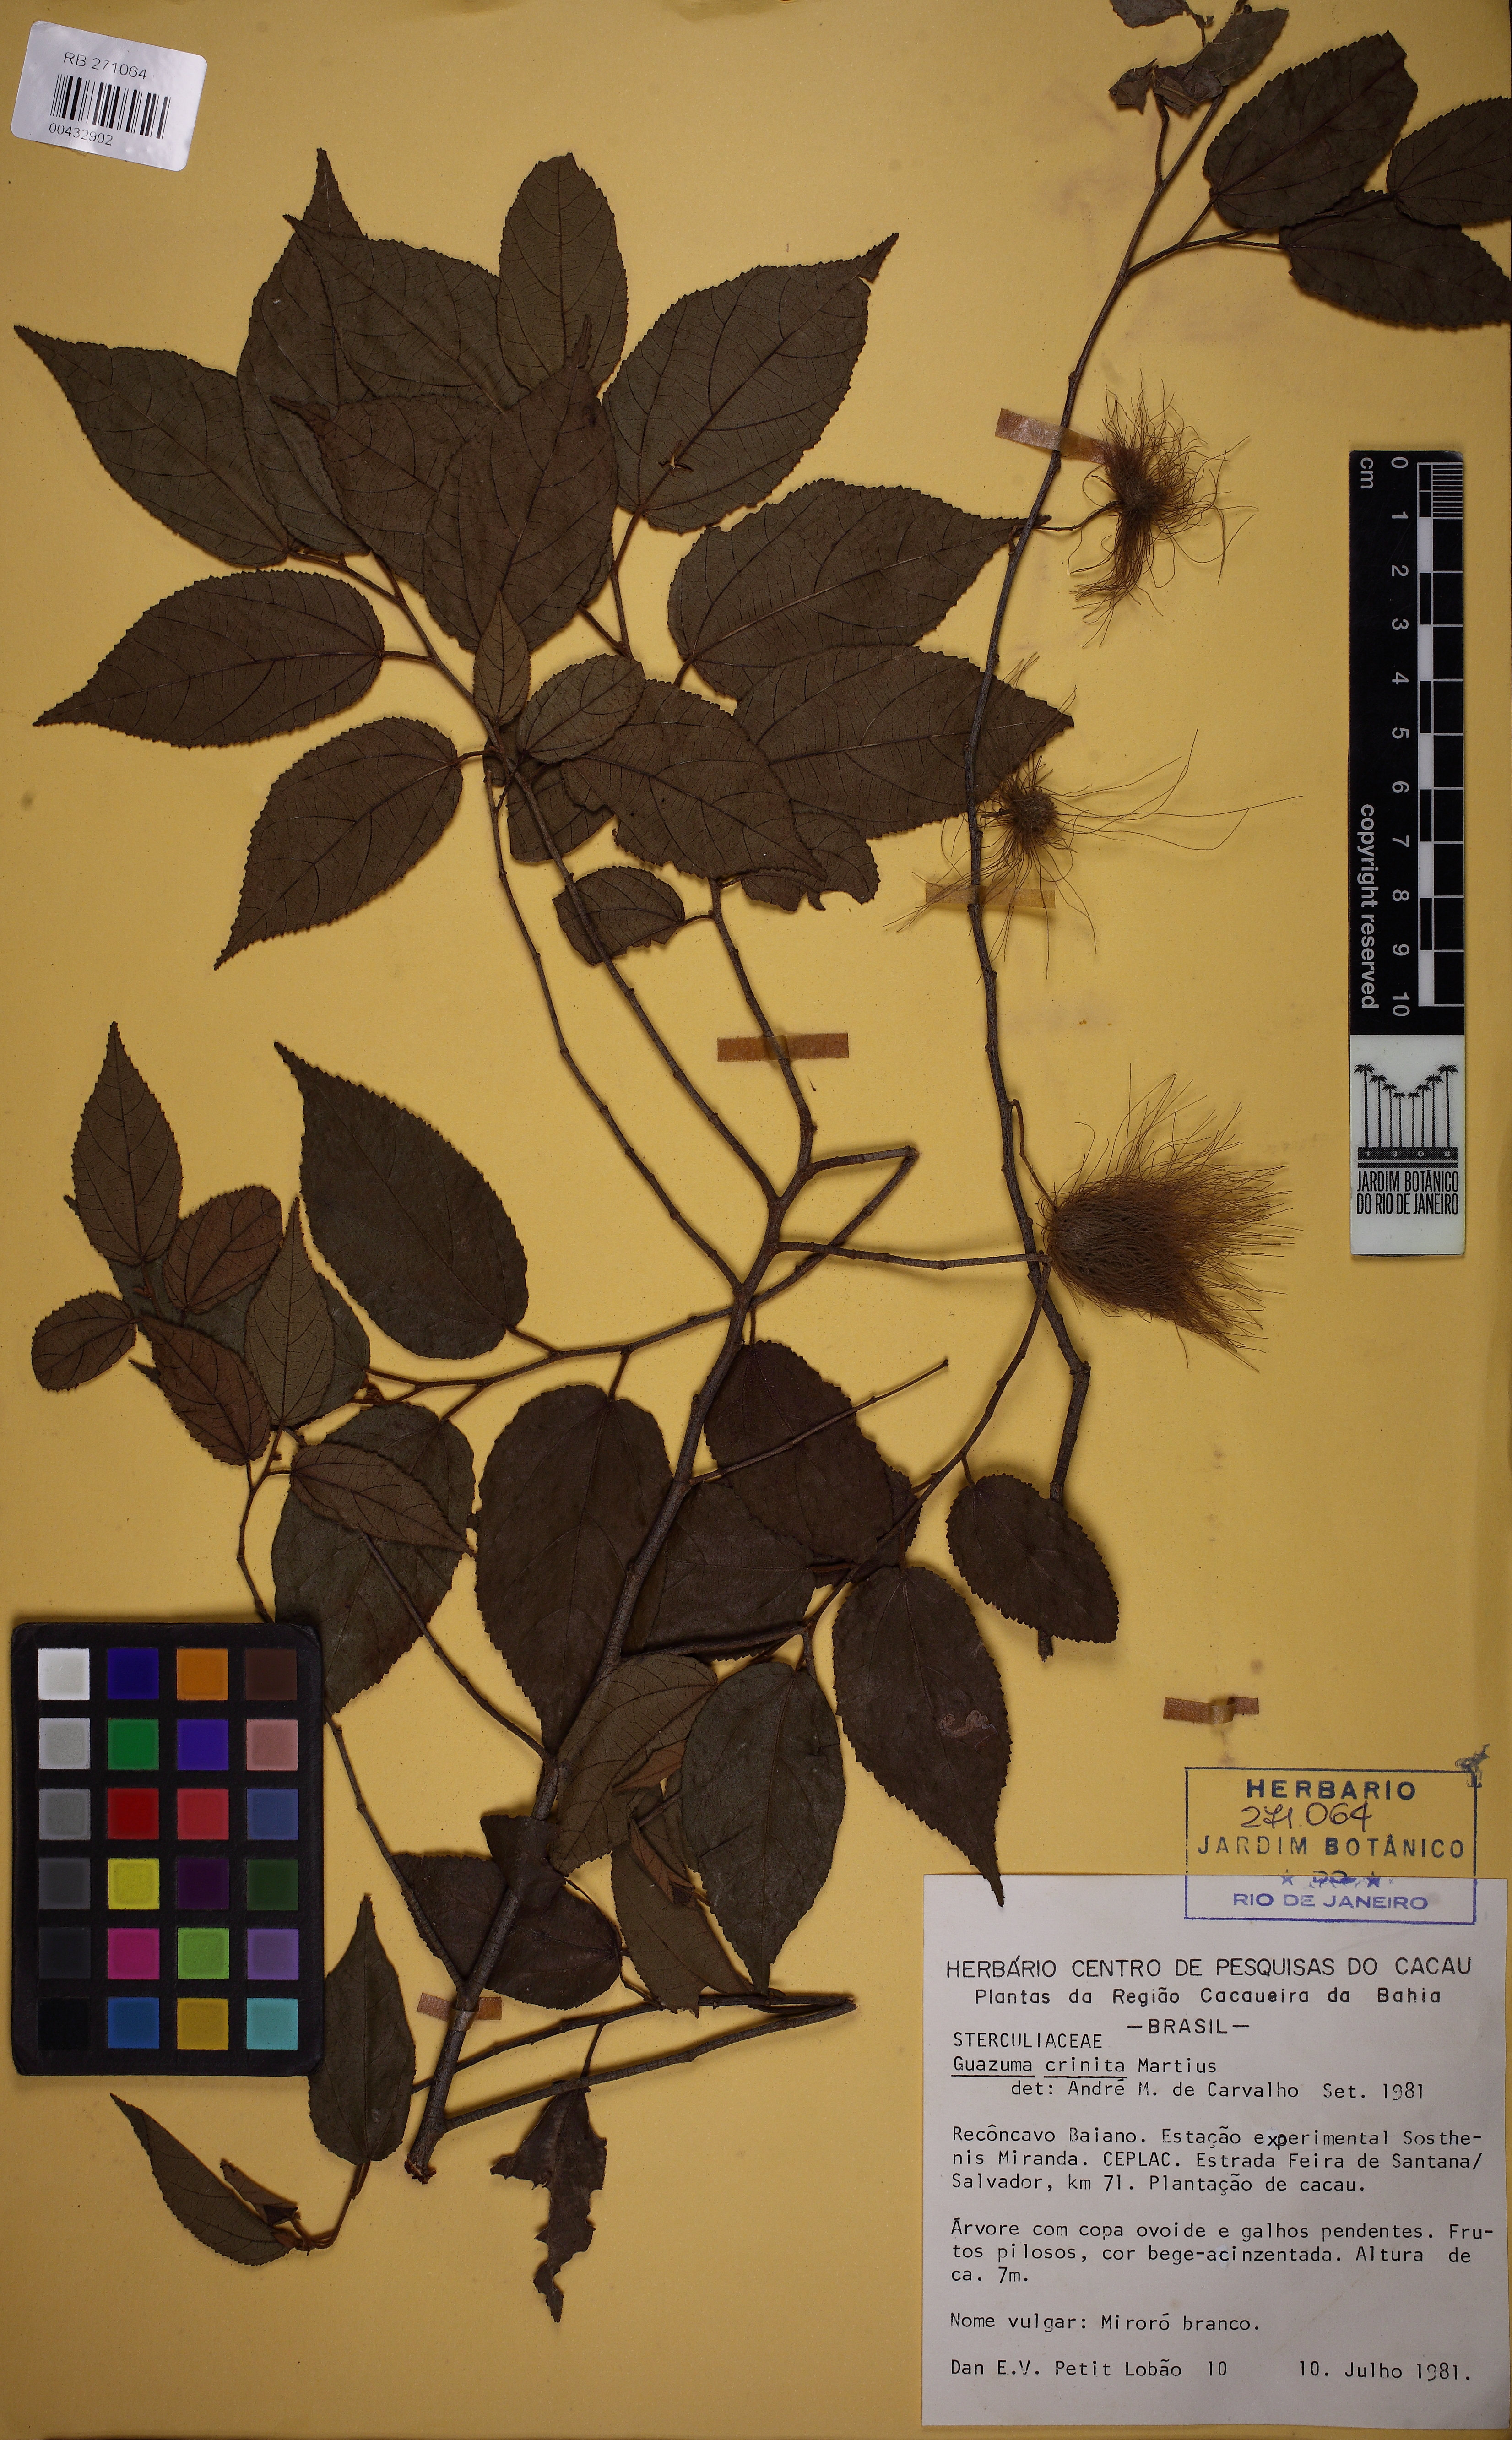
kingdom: Plantae
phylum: Tracheophyta
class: Magnoliopsida
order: Malvales
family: Malvaceae
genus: Guazuma
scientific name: Guazuma crinita
